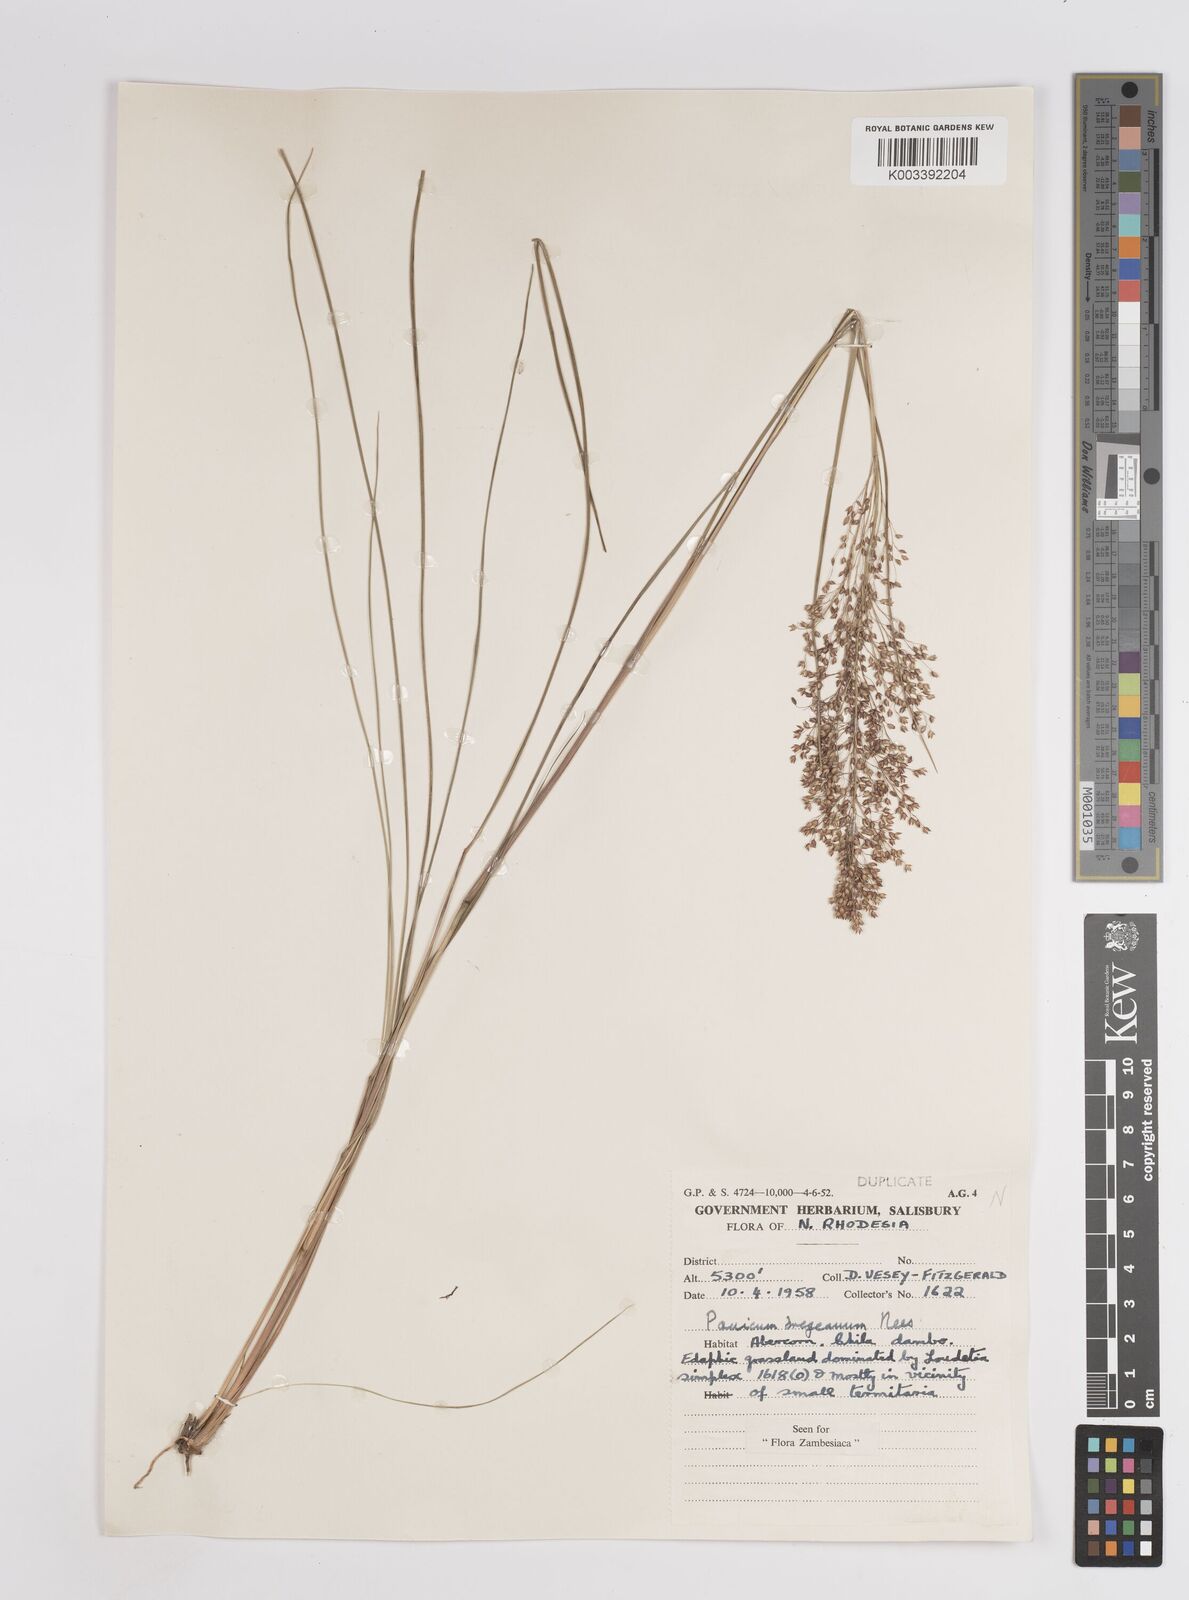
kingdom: Plantae
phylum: Tracheophyta
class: Liliopsida
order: Poales
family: Poaceae
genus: Panicum
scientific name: Panicum dregeanum
